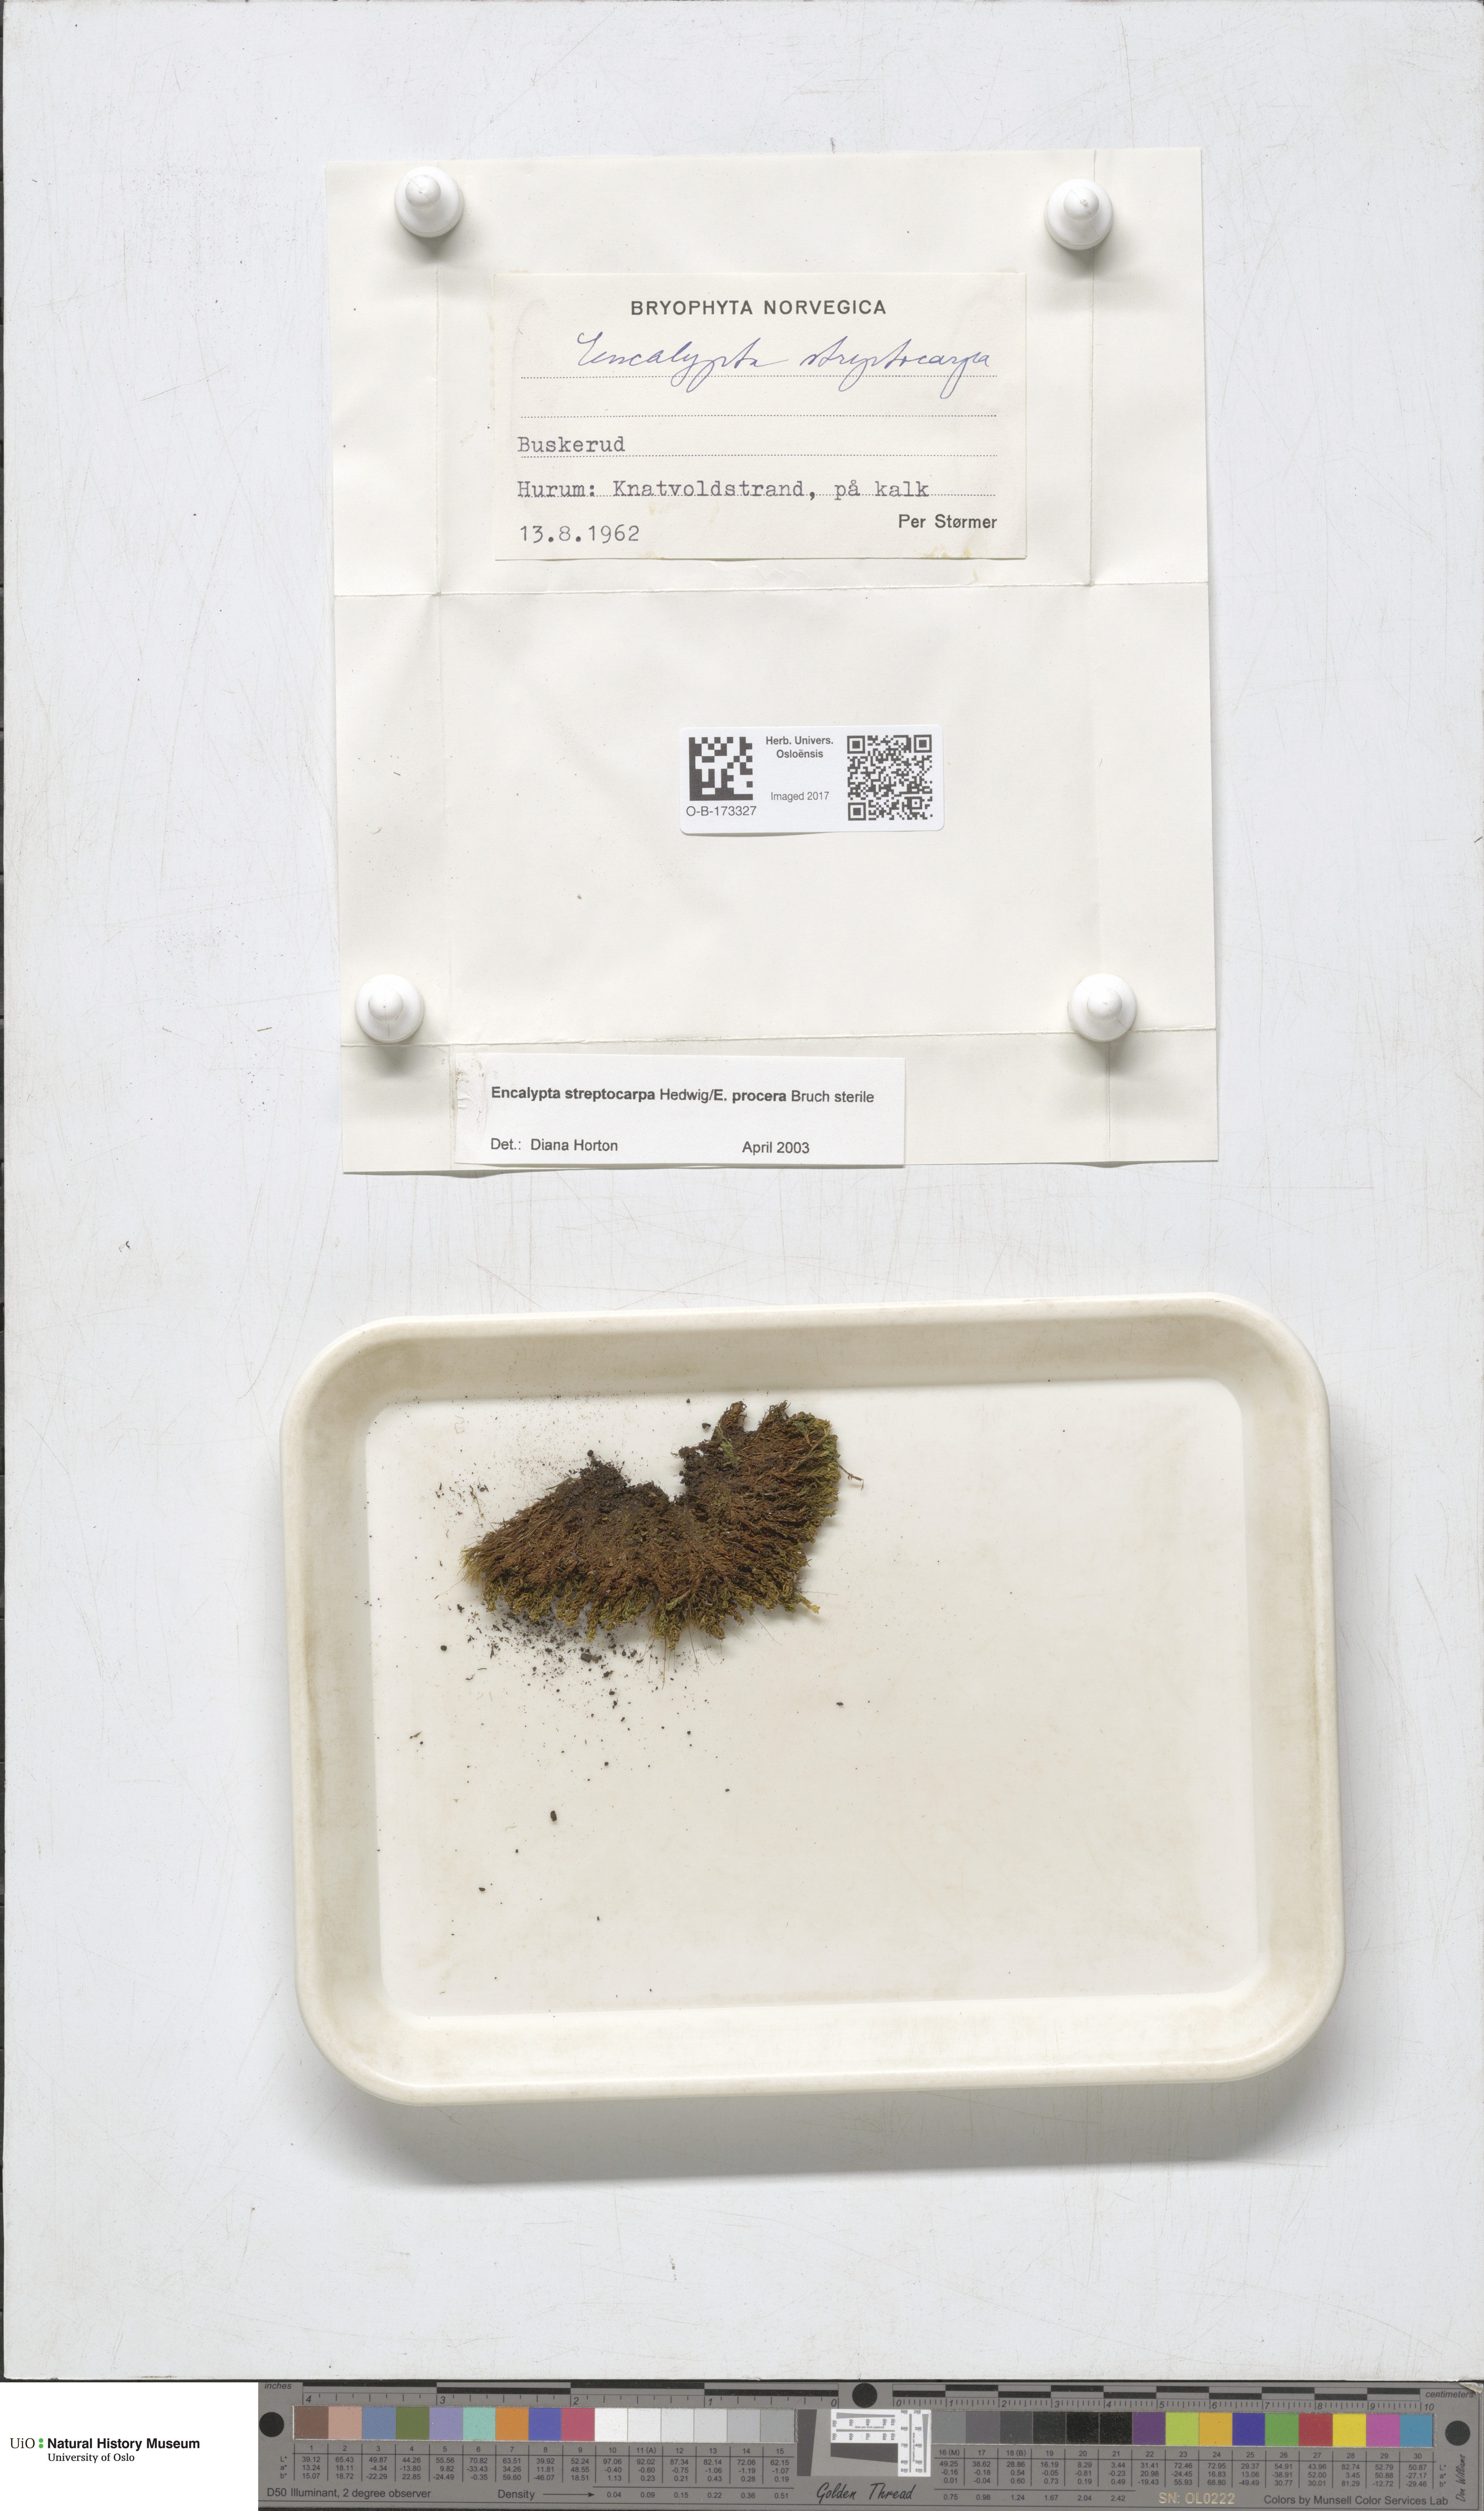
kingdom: Plantae
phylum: Bryophyta
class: Bryopsida
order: Encalyptales
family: Encalyptaceae
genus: Encalypta
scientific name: Encalypta
